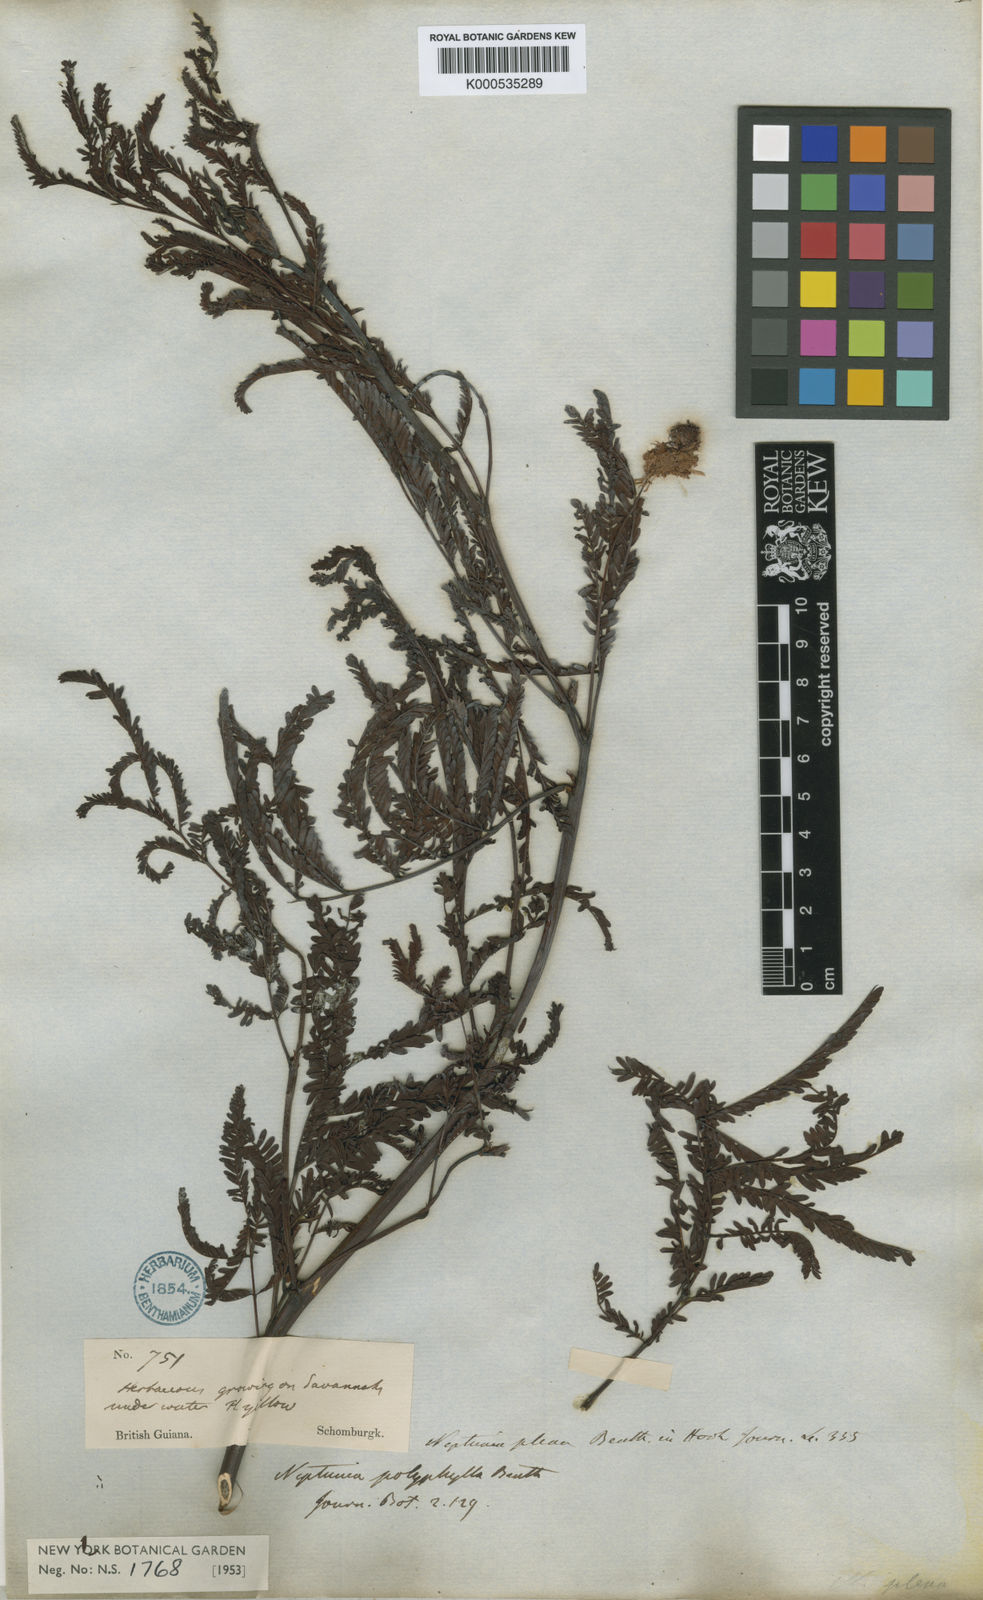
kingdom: Plantae
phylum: Tracheophyta
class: Magnoliopsida
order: Fabales
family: Fabaceae
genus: Neptunia
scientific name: Neptunia plena
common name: Dead and awake
